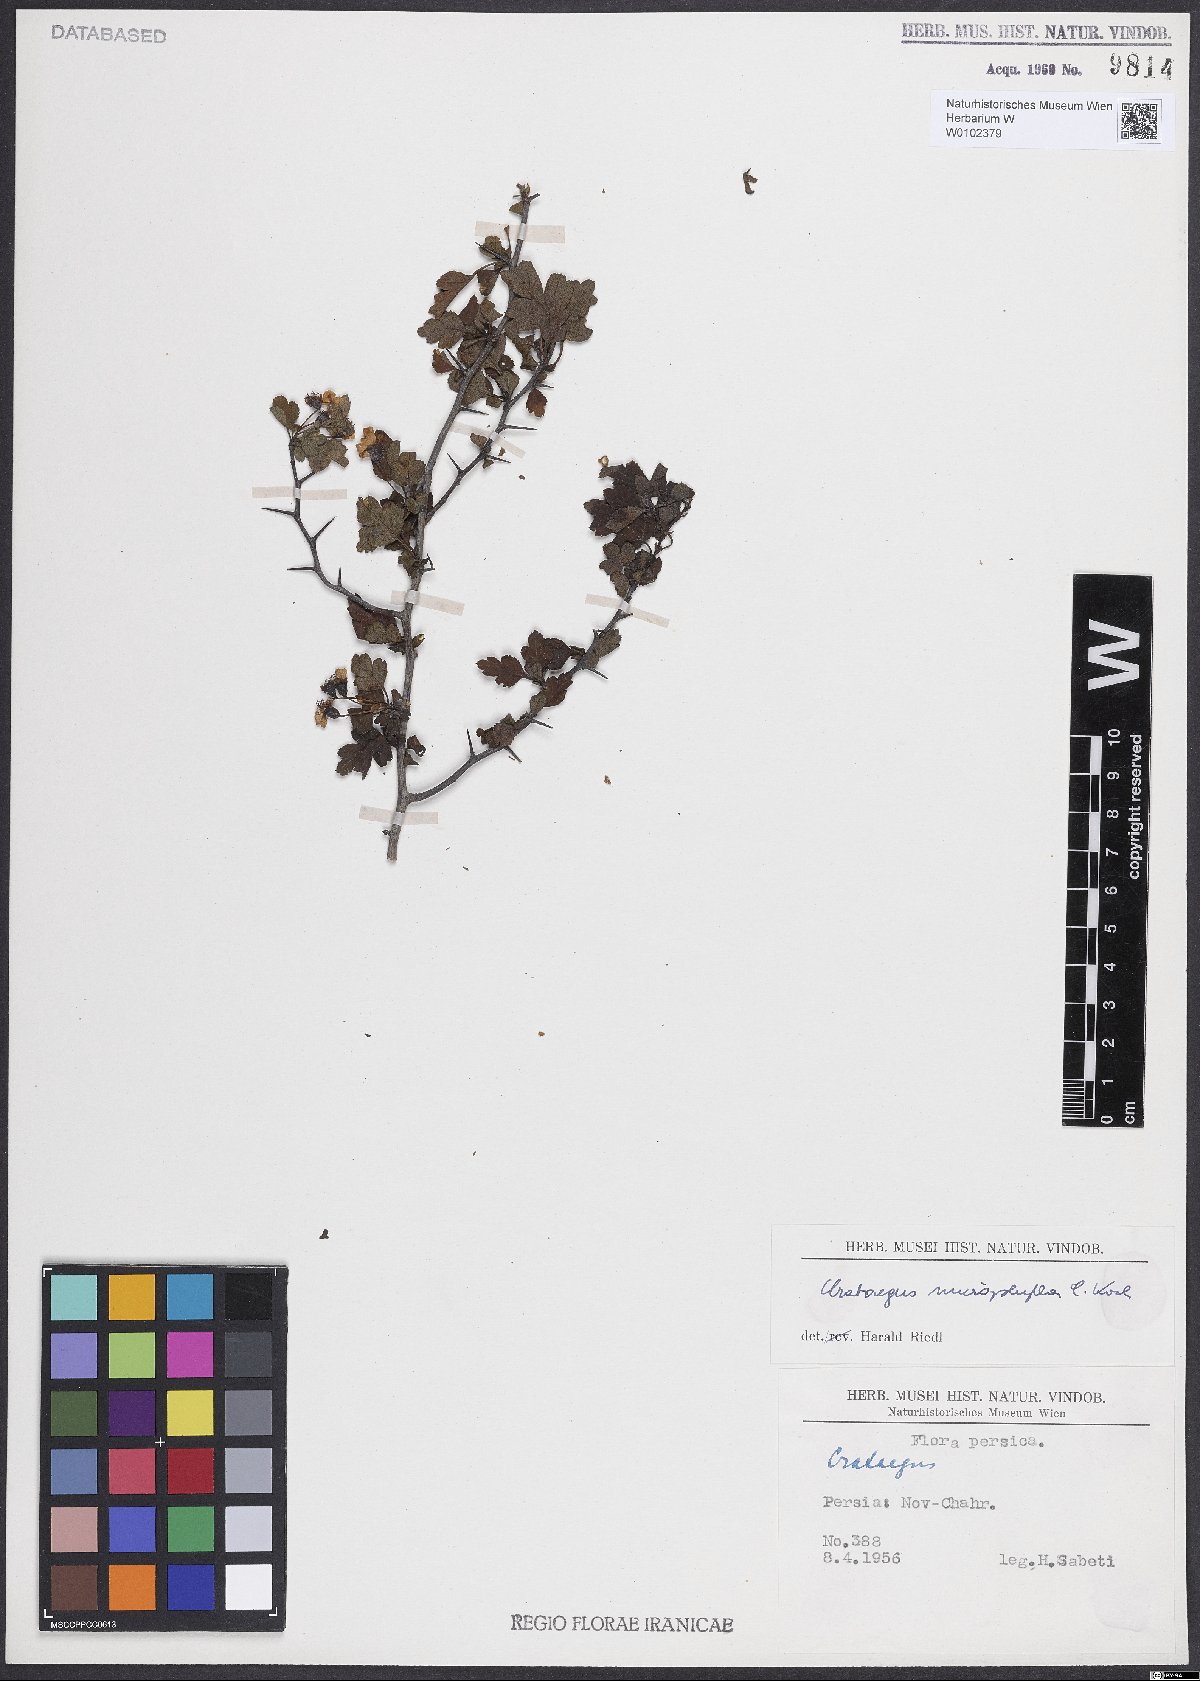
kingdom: Plantae
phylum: Tracheophyta
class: Magnoliopsida
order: Rosales
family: Rosaceae
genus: Crataegus
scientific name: Crataegus microphylla
